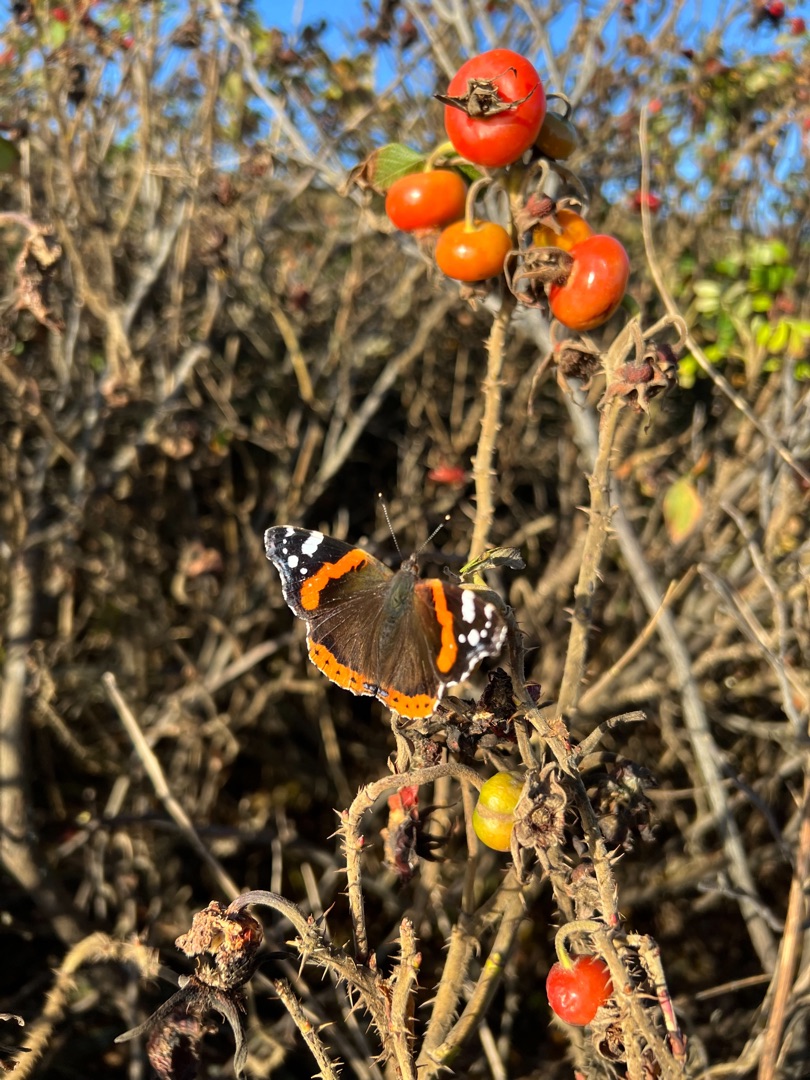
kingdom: Animalia
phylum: Arthropoda
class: Insecta
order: Lepidoptera
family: Nymphalidae
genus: Vanessa
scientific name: Vanessa atalanta
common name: Admiral
